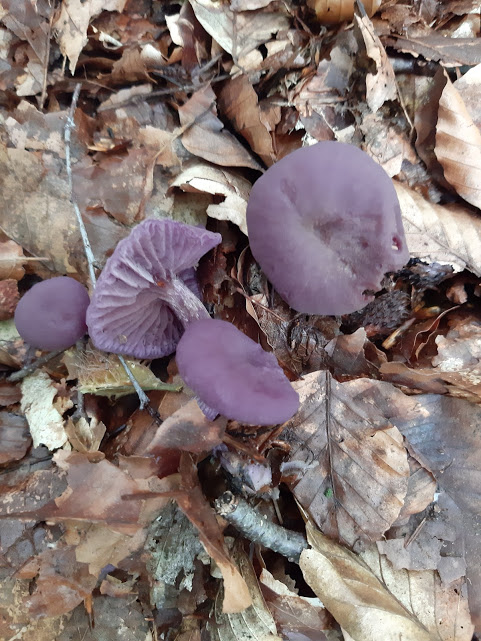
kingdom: Fungi
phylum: Basidiomycota
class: Agaricomycetes
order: Agaricales
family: Hydnangiaceae
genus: Laccaria
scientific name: Laccaria amethystina
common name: violet ametysthat
